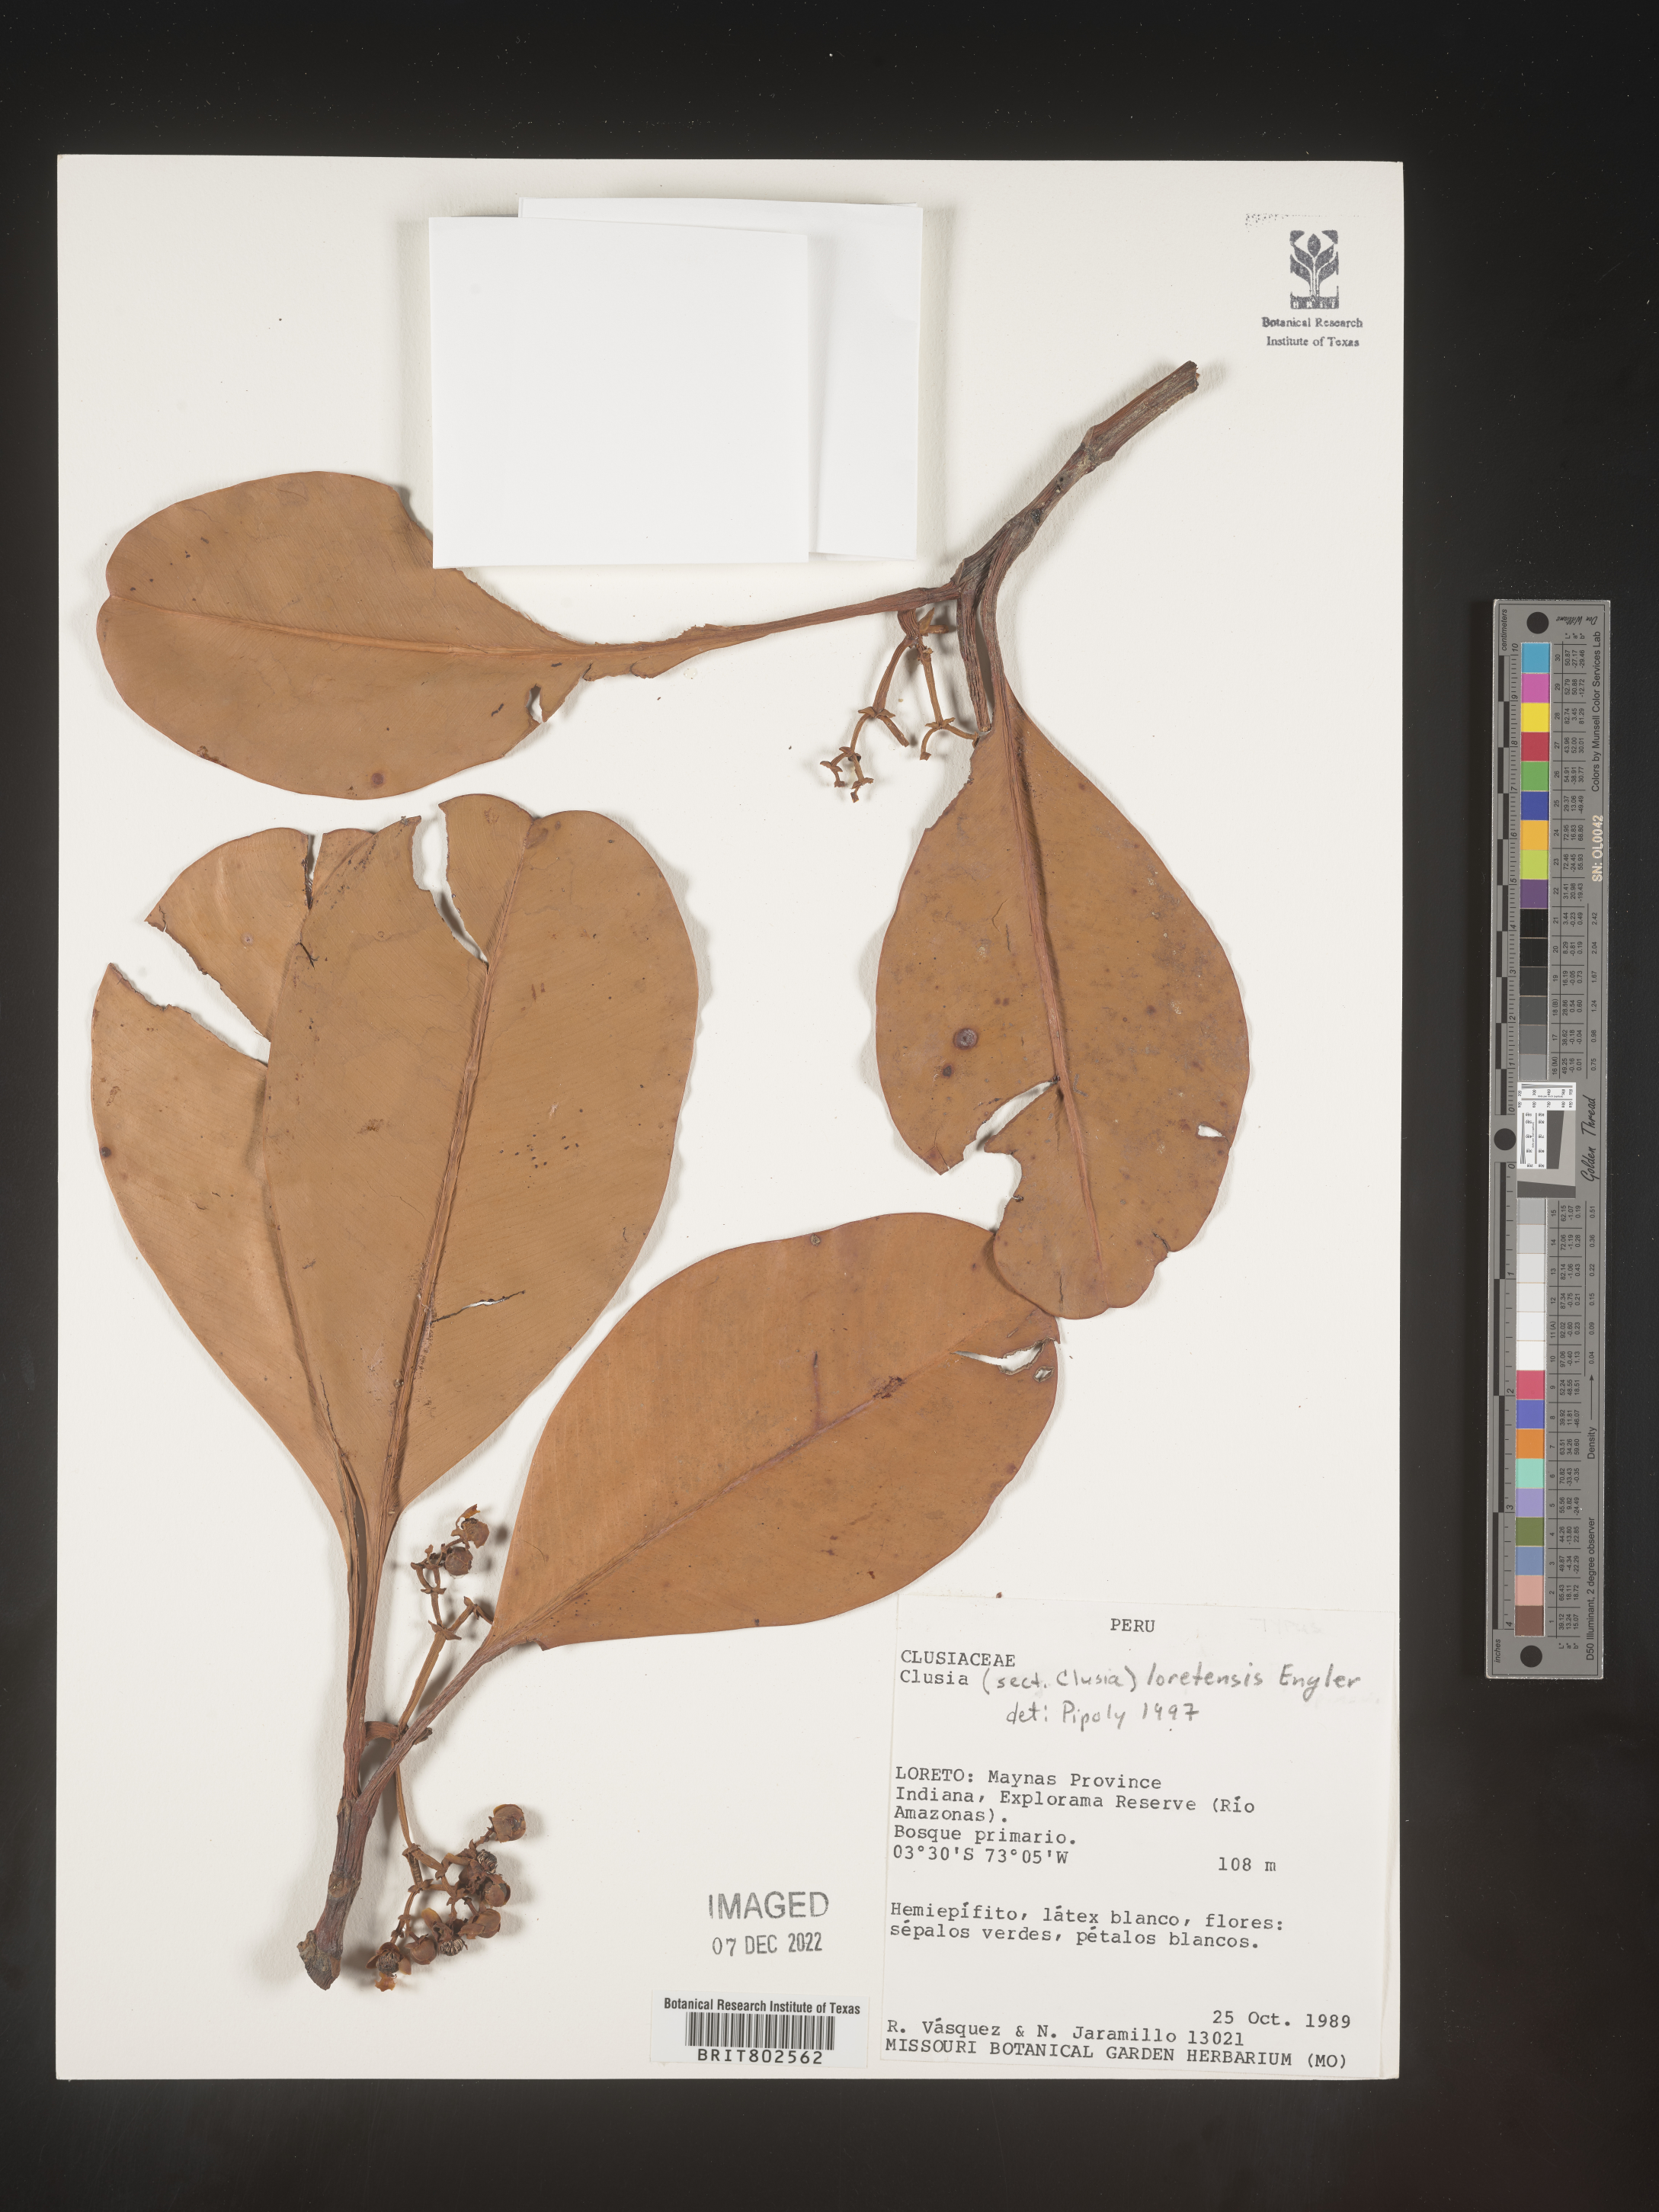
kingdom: Plantae
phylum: Tracheophyta
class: Magnoliopsida
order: Malpighiales
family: Clusiaceae
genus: Clusia
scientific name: Clusia loretensis
